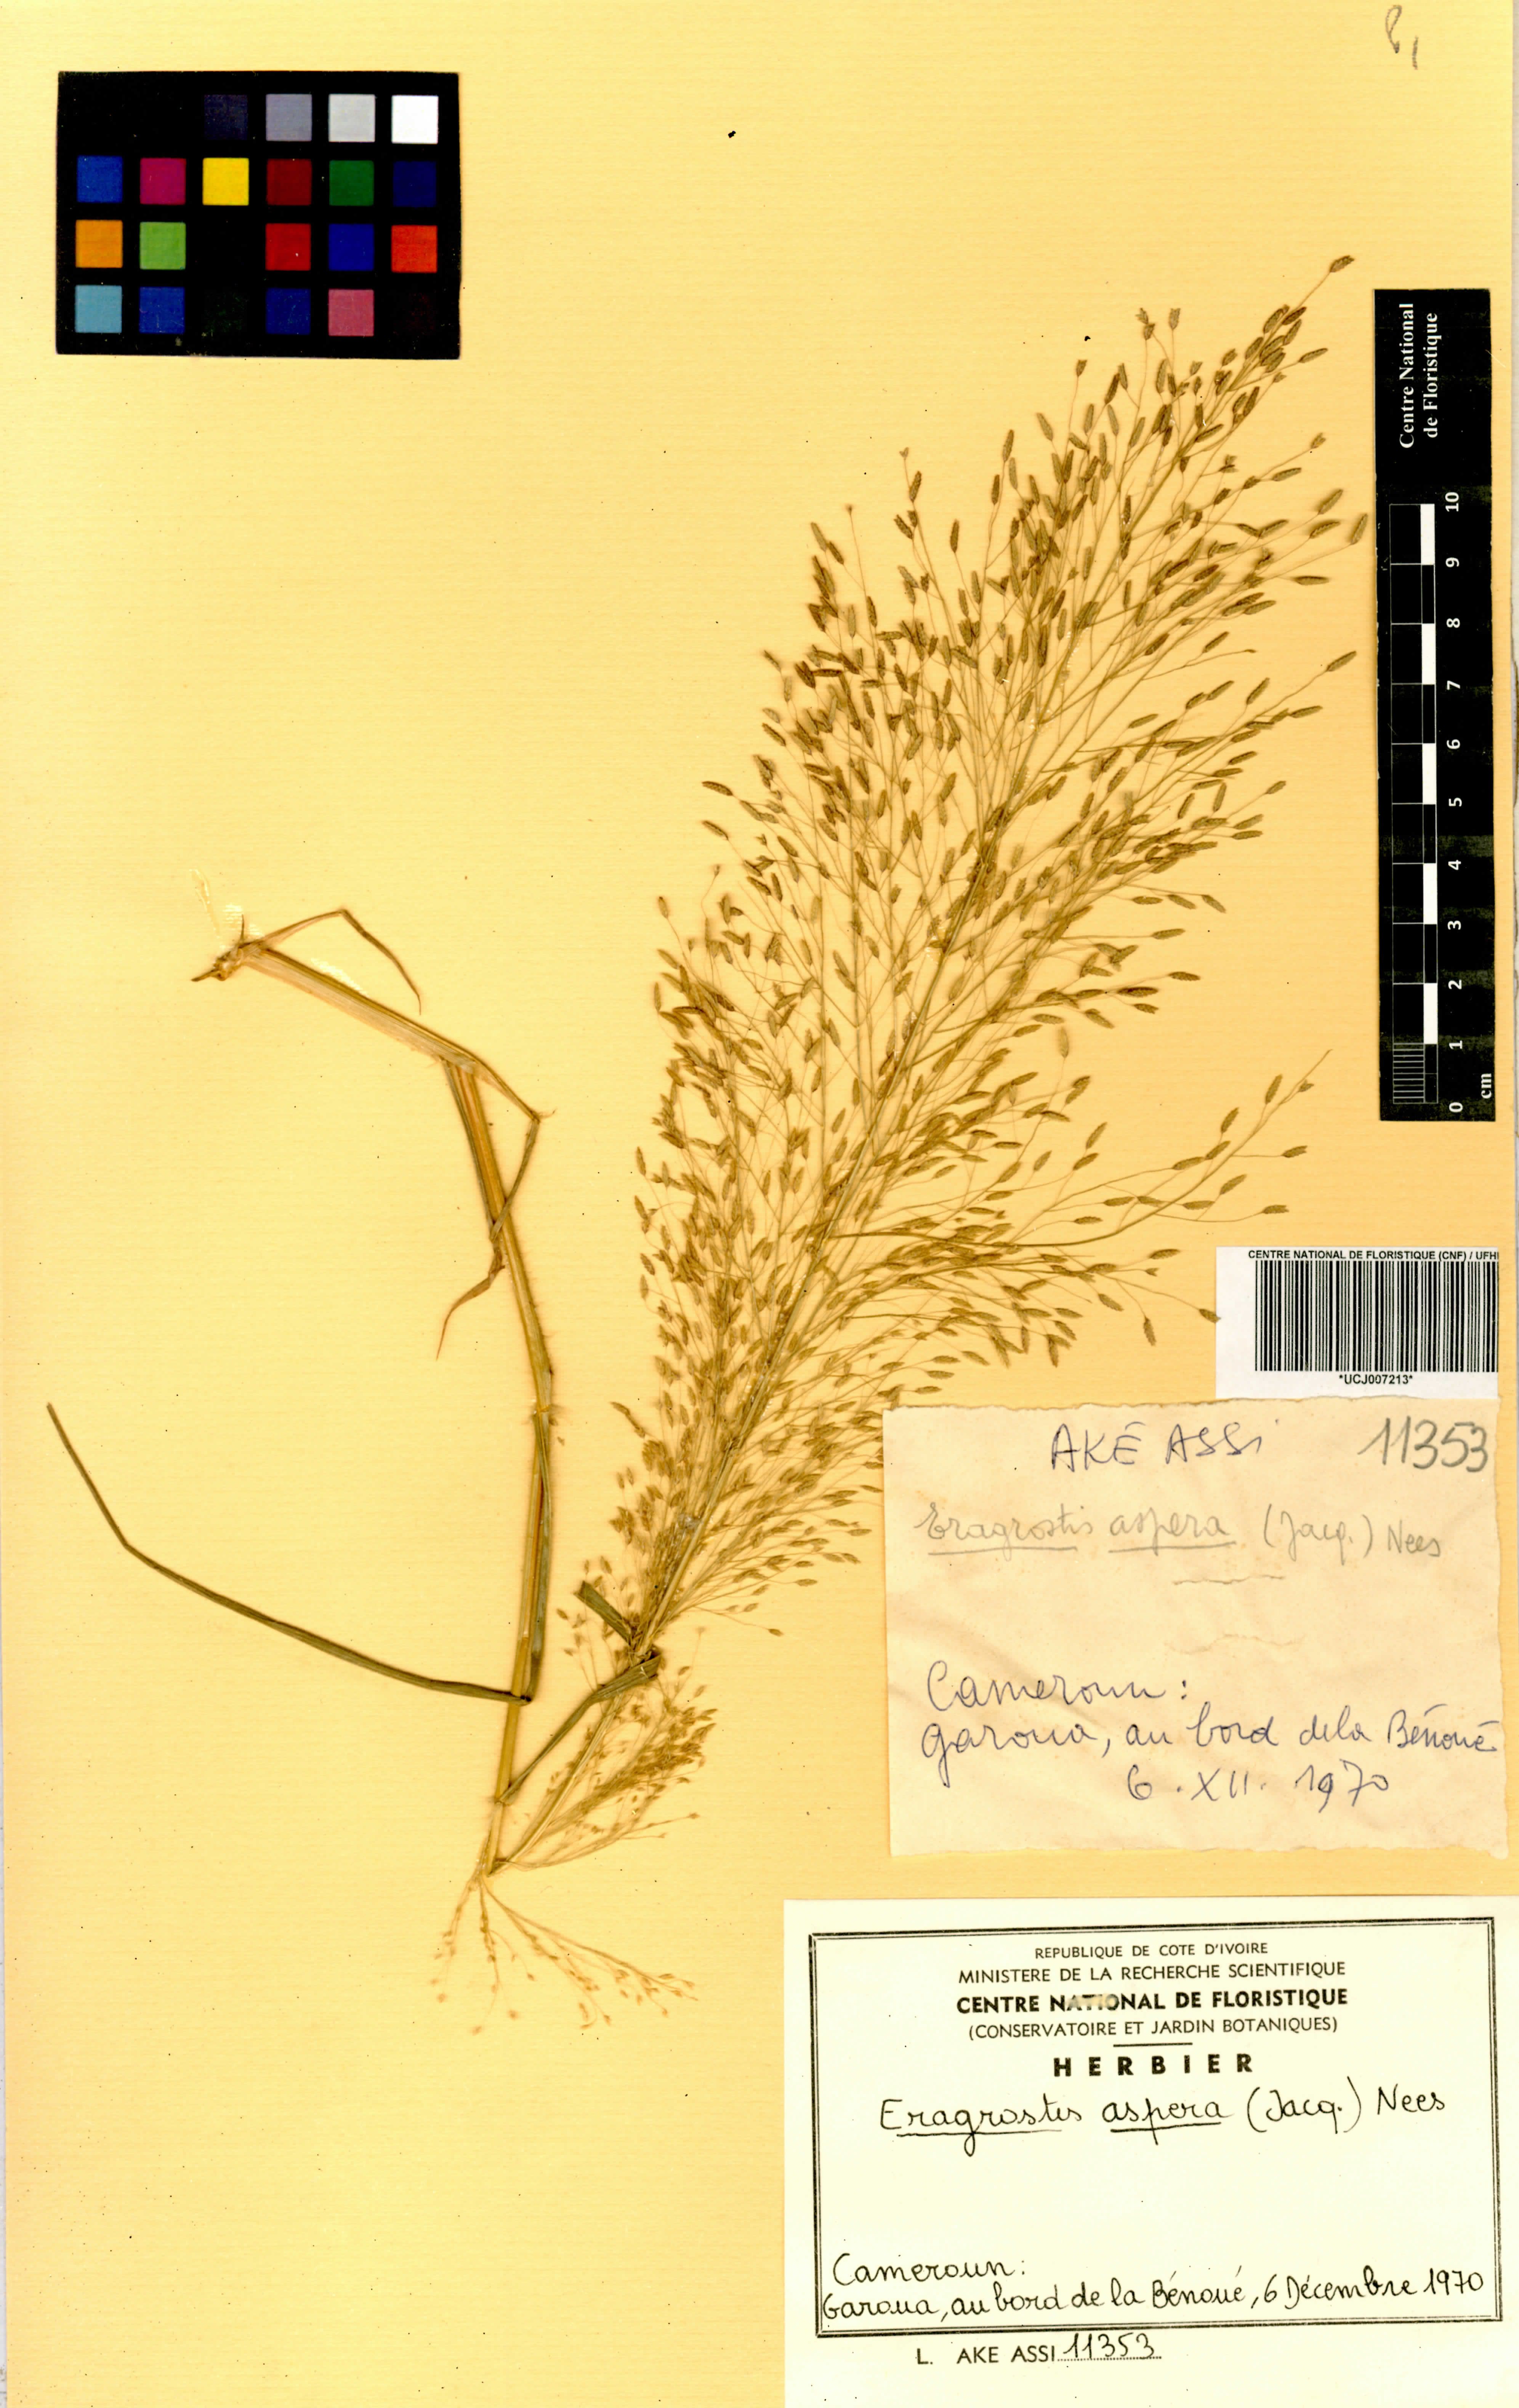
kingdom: Plantae
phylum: Tracheophyta
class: Liliopsida
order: Poales
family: Poaceae
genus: Eragrostis
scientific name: Eragrostis aspera
